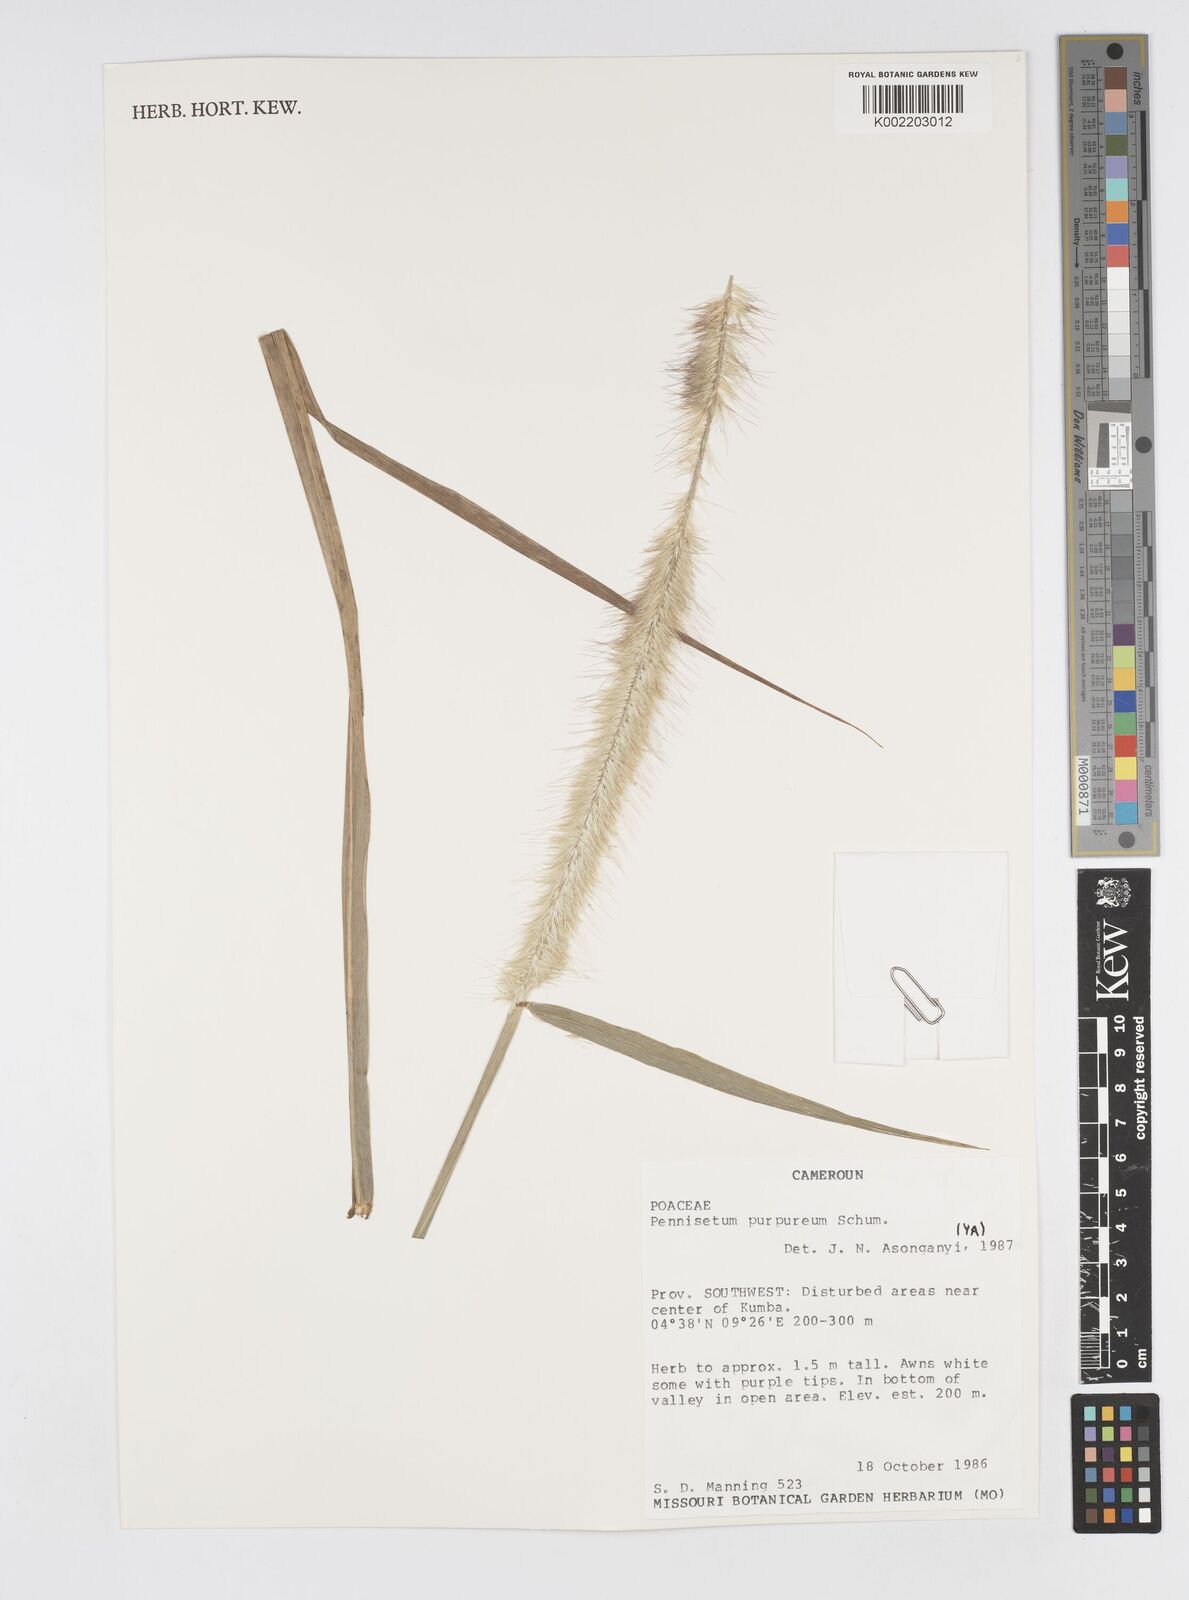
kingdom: Plantae
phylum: Tracheophyta
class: Liliopsida
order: Poales
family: Poaceae
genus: Cenchrus
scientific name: Cenchrus purpureus
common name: Elephant grass
